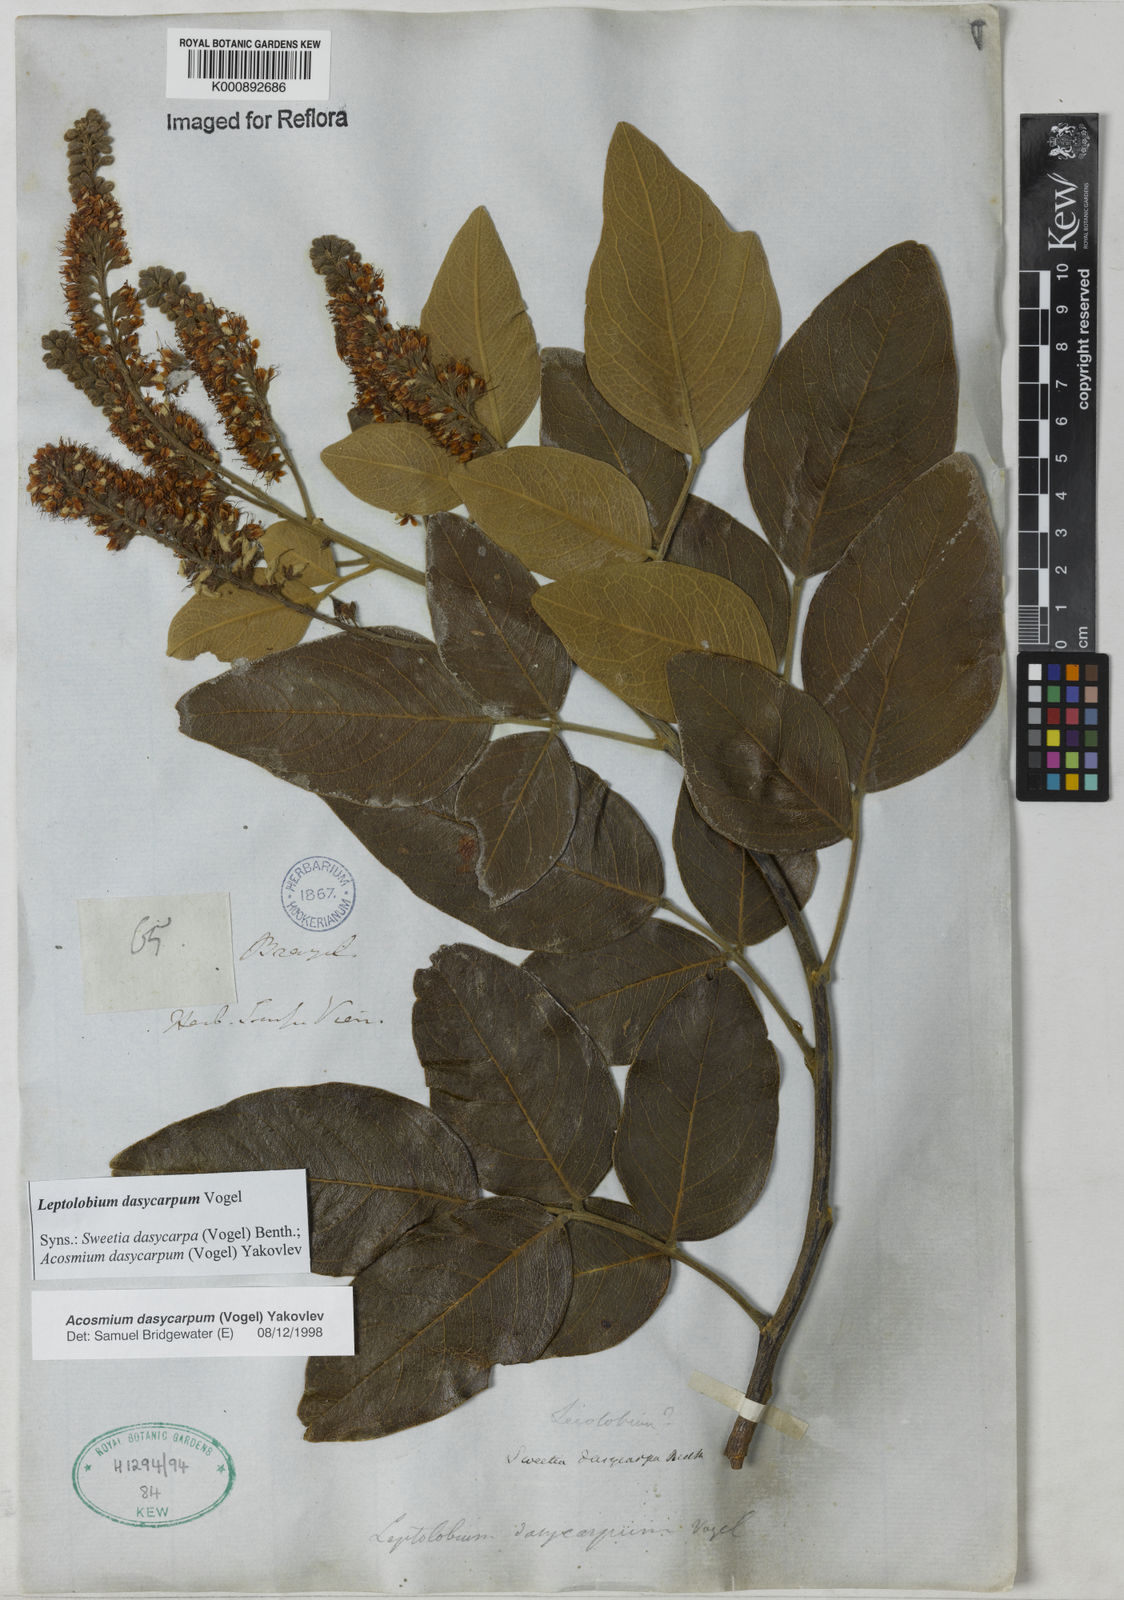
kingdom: Plantae
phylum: Tracheophyta
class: Magnoliopsida
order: Fabales
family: Fabaceae
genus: Leptolobium
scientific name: Leptolobium dasycarpum
